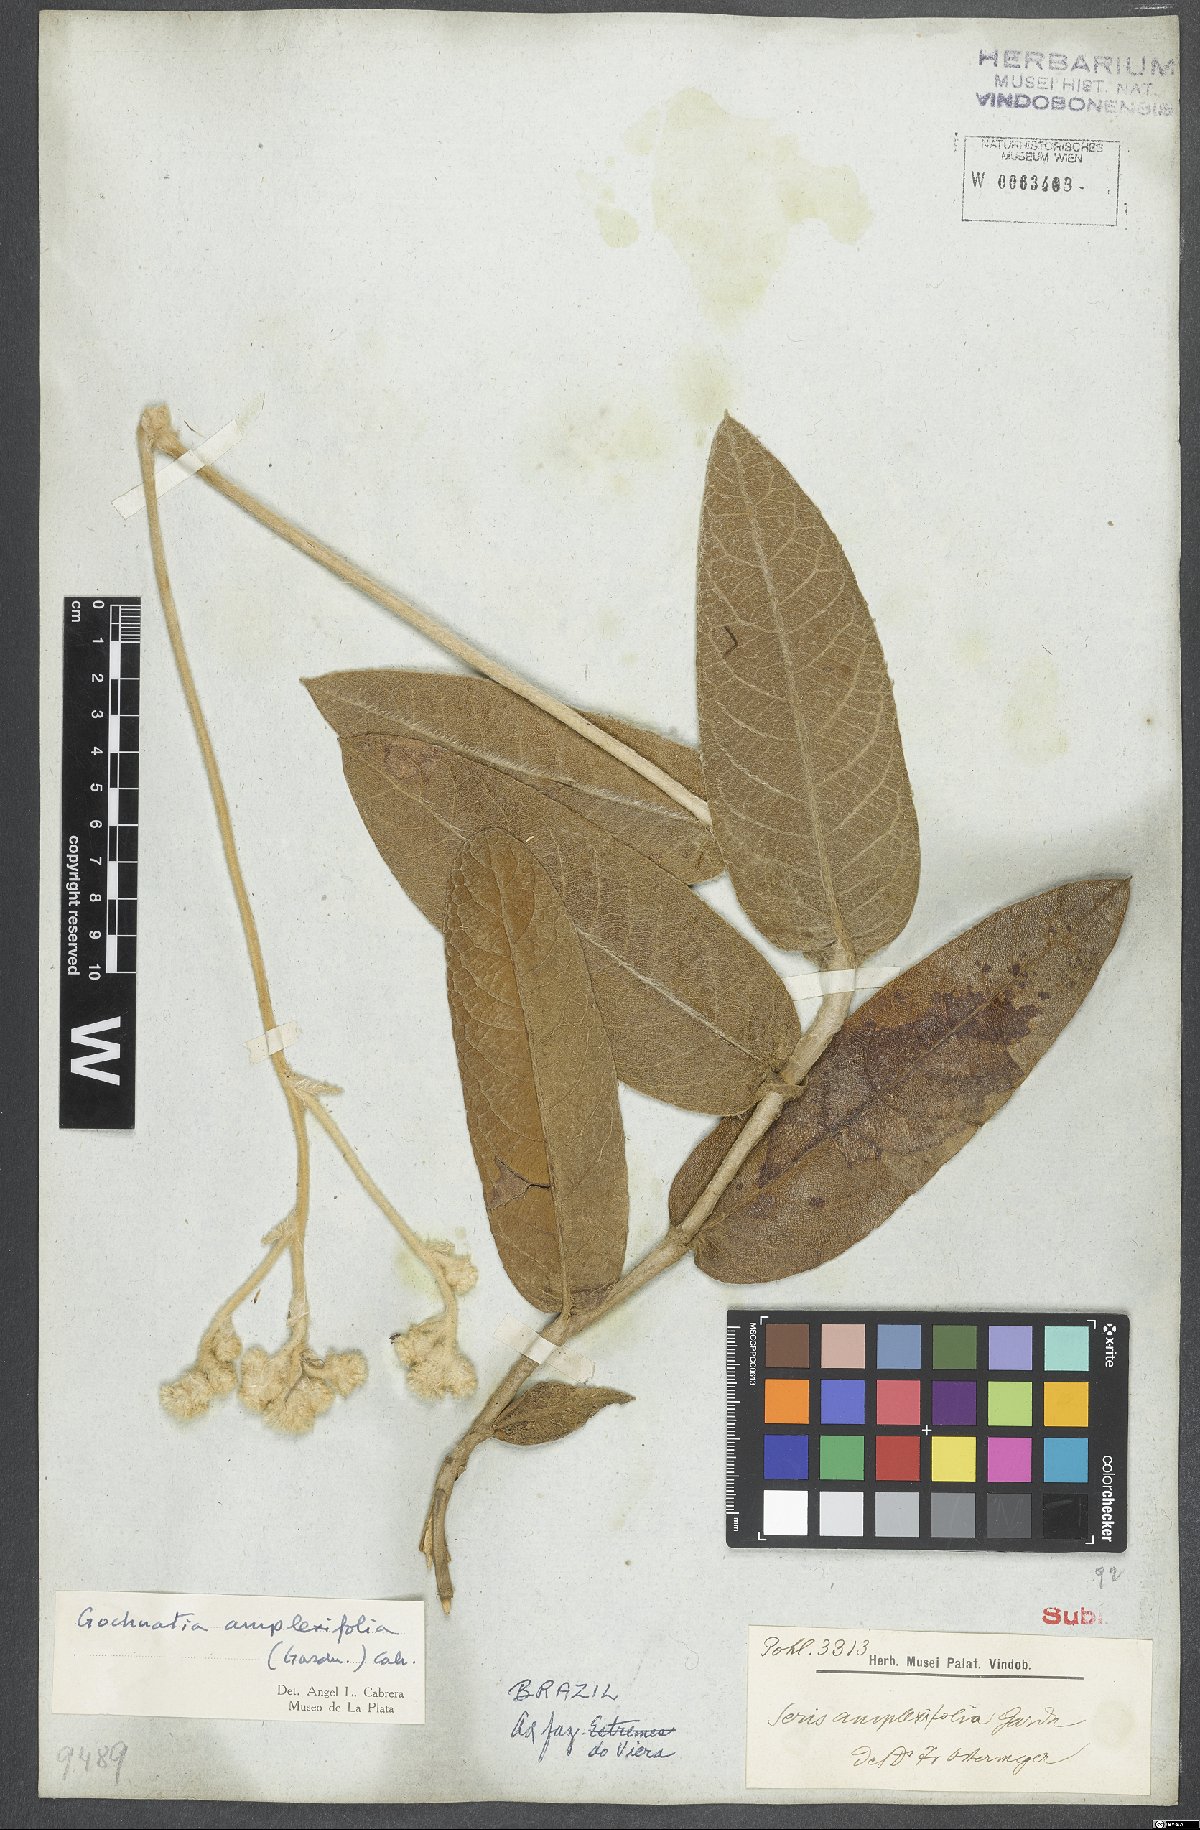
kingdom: Plantae
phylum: Tracheophyta
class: Magnoliopsida
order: Asterales
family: Asteraceae
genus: Richterago
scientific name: Richterago amplexifolia
